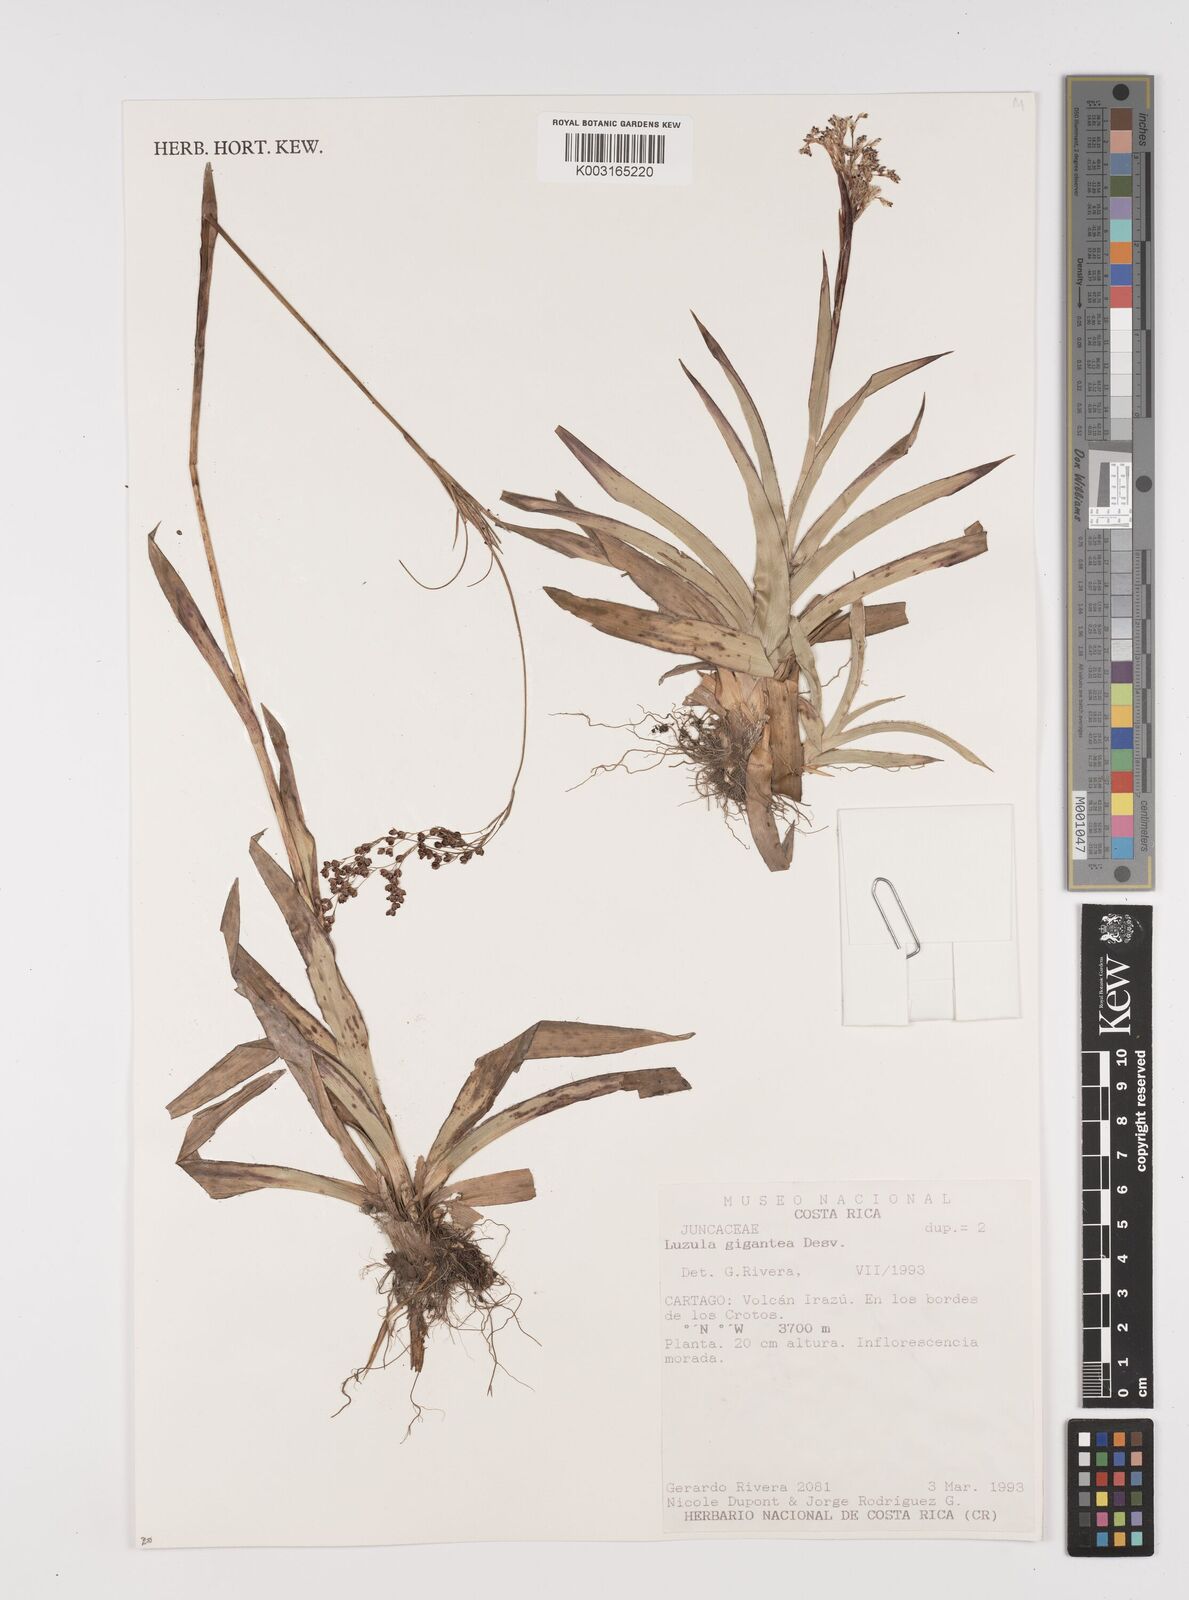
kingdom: Plantae
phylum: Tracheophyta
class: Liliopsida
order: Poales
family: Juncaceae
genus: Luzula
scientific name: Luzula gigantea
